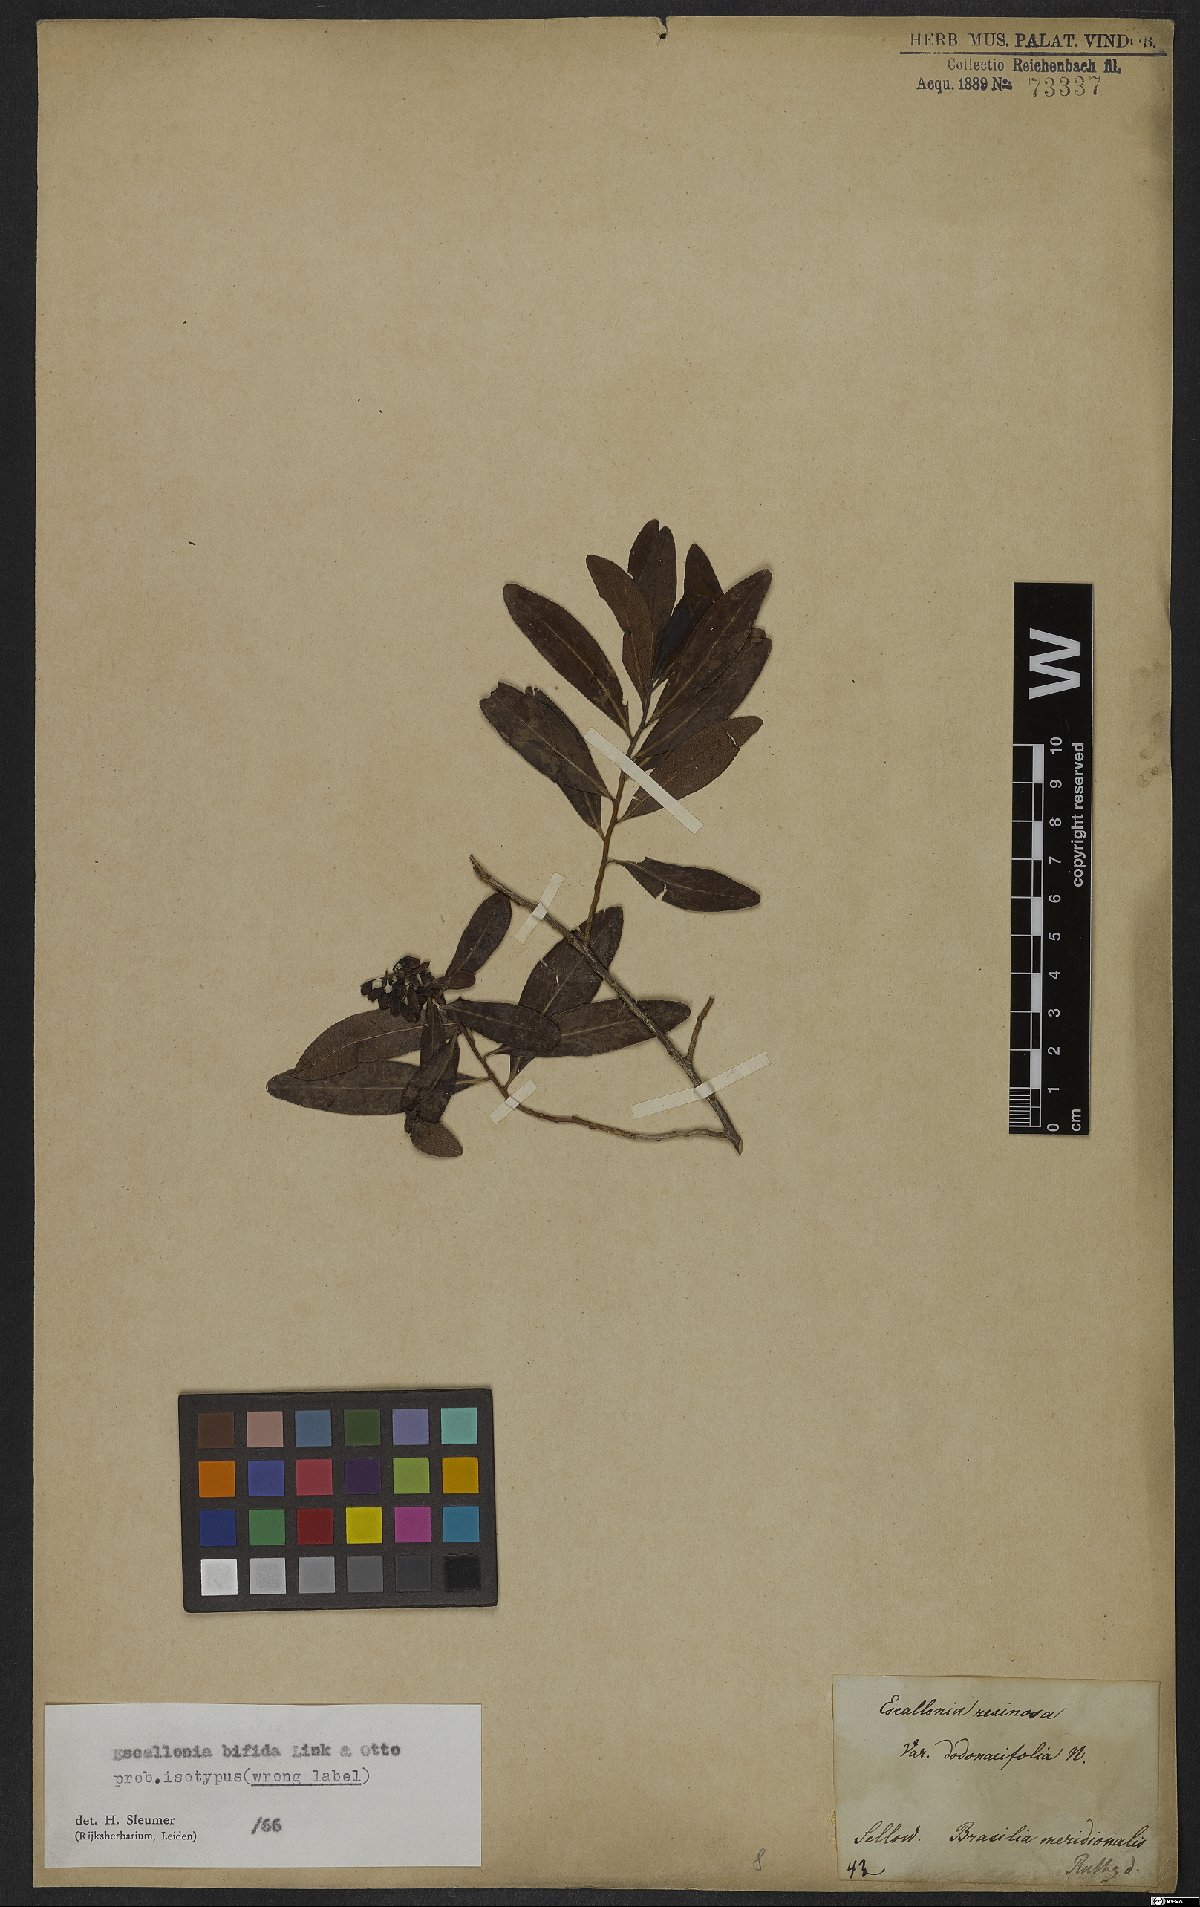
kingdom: Plantae
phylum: Tracheophyta
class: Magnoliopsida
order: Escalloniales
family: Escalloniaceae
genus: Escallonia
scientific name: Escallonia bifida
